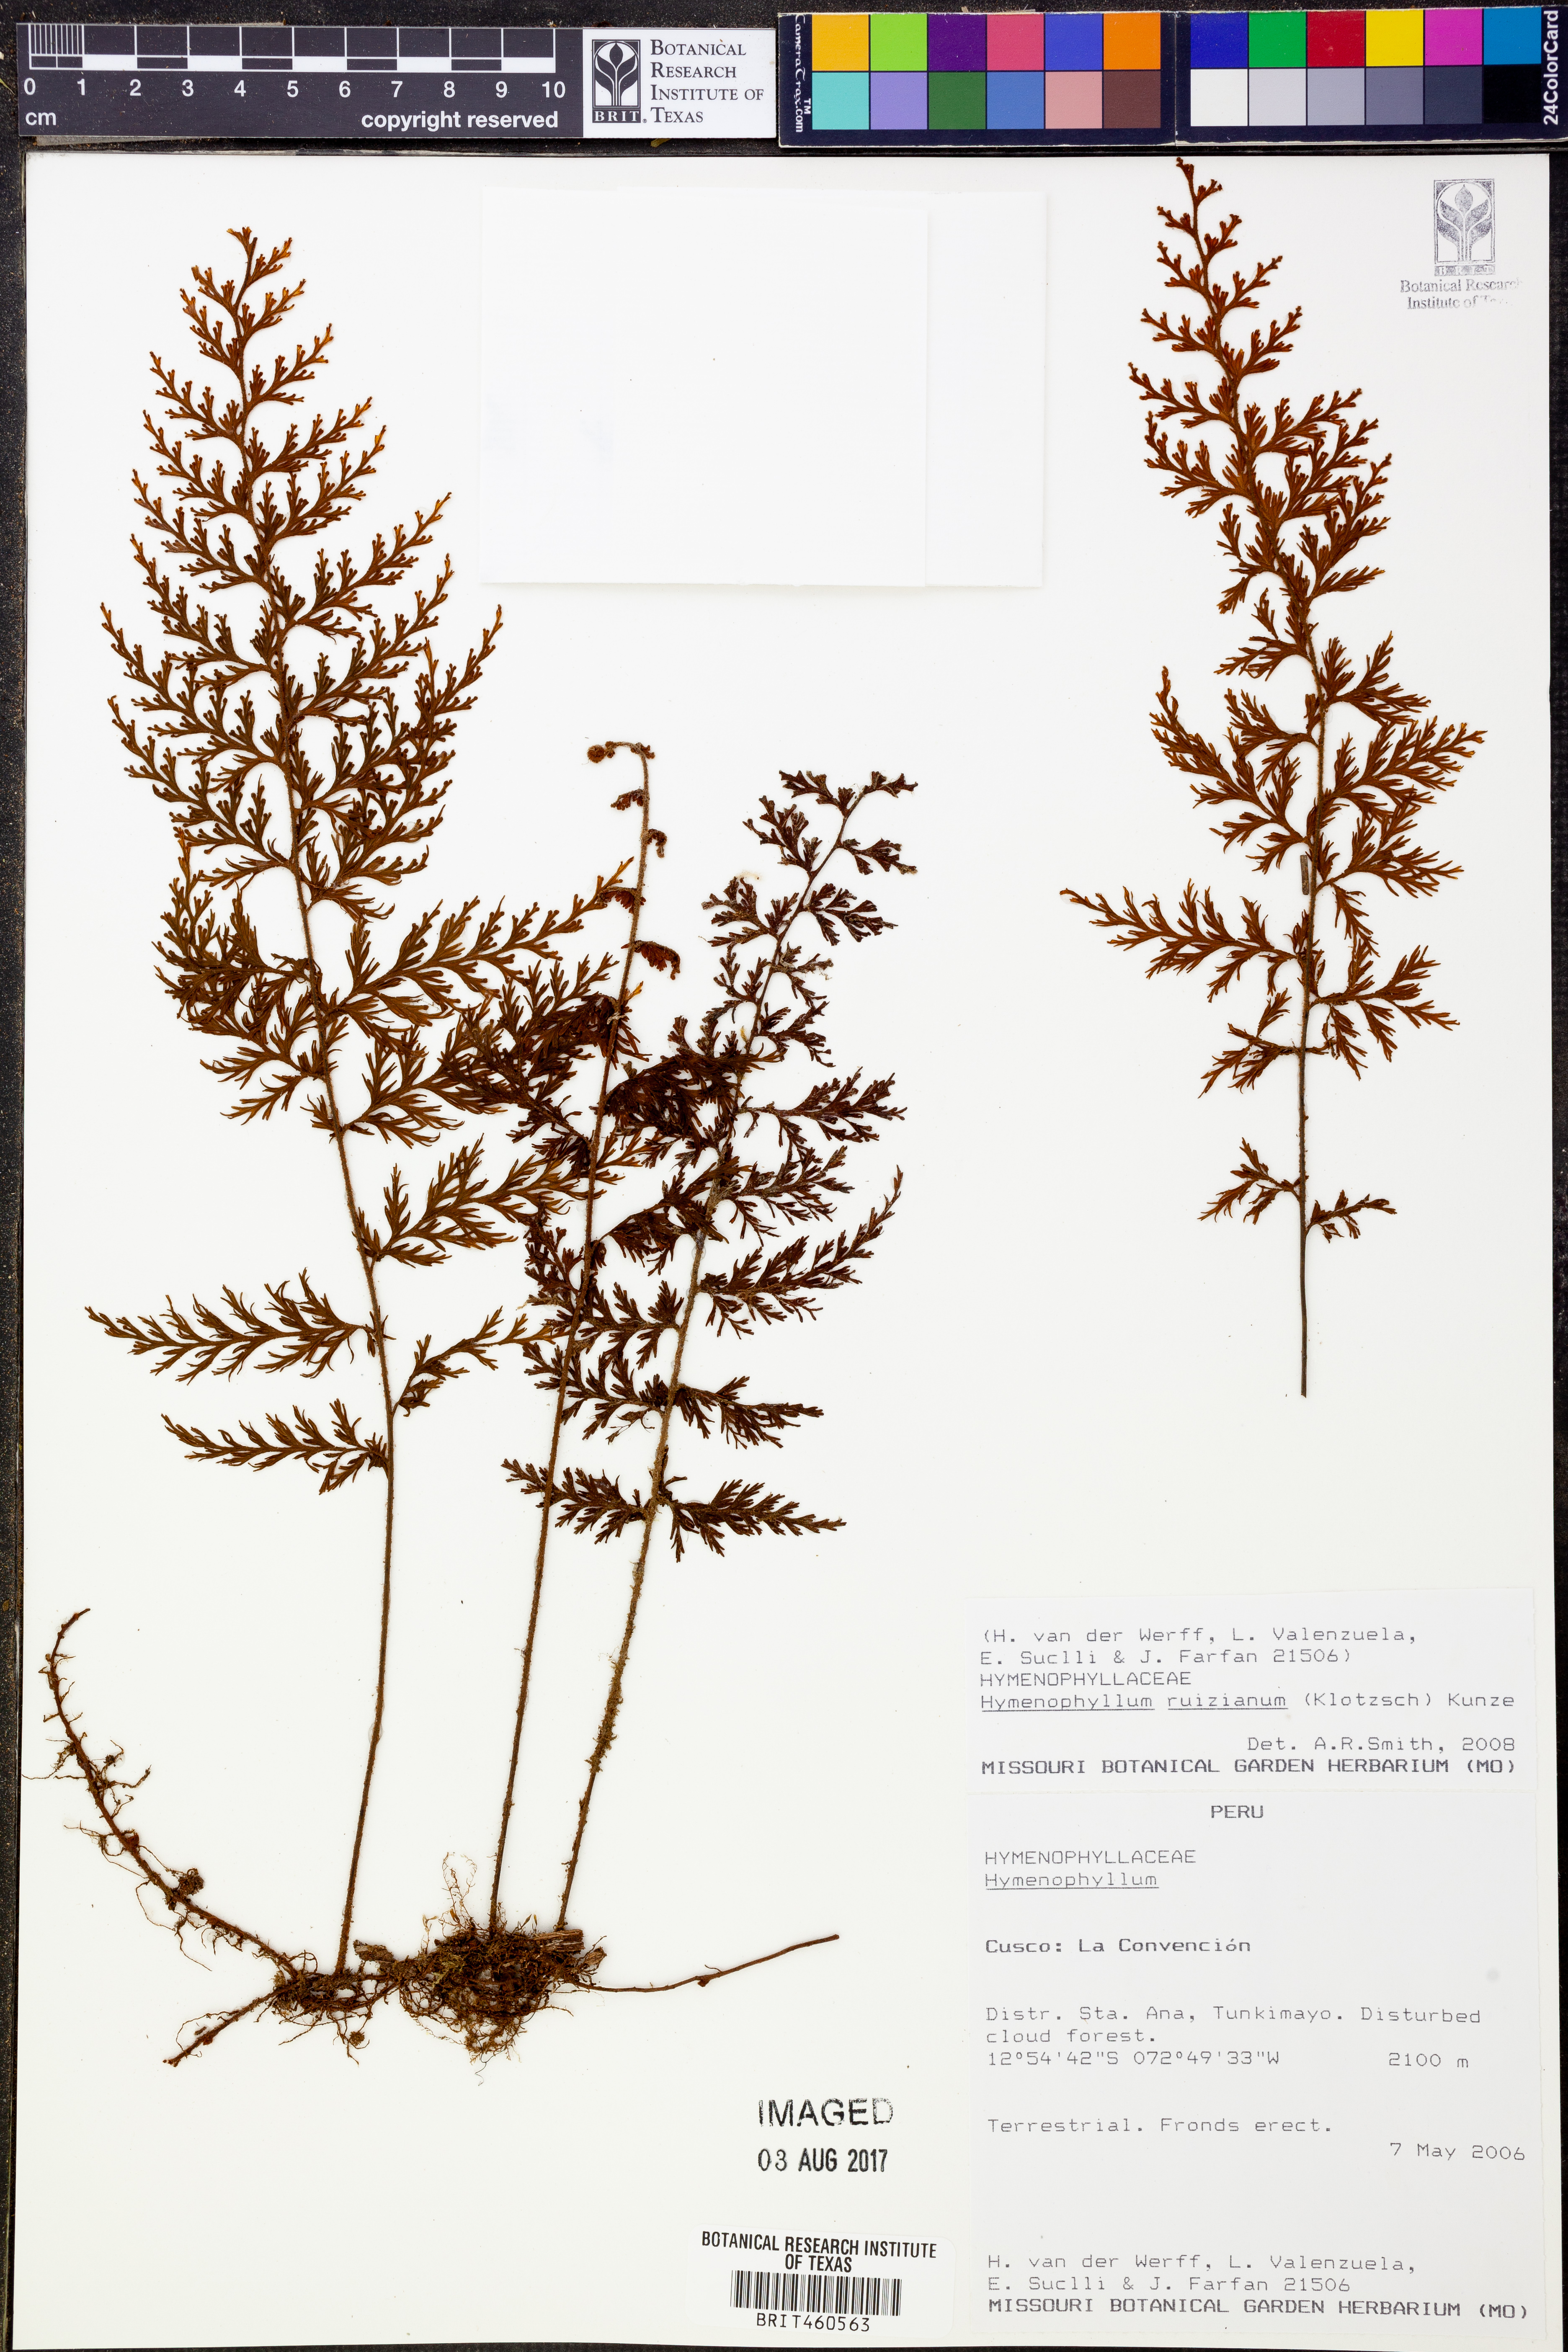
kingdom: Plantae
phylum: Tracheophyta
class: Polypodiopsida
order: Hymenophyllales
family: Hymenophyllaceae
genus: Hymenophyllum
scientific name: Hymenophyllum ruizianum
